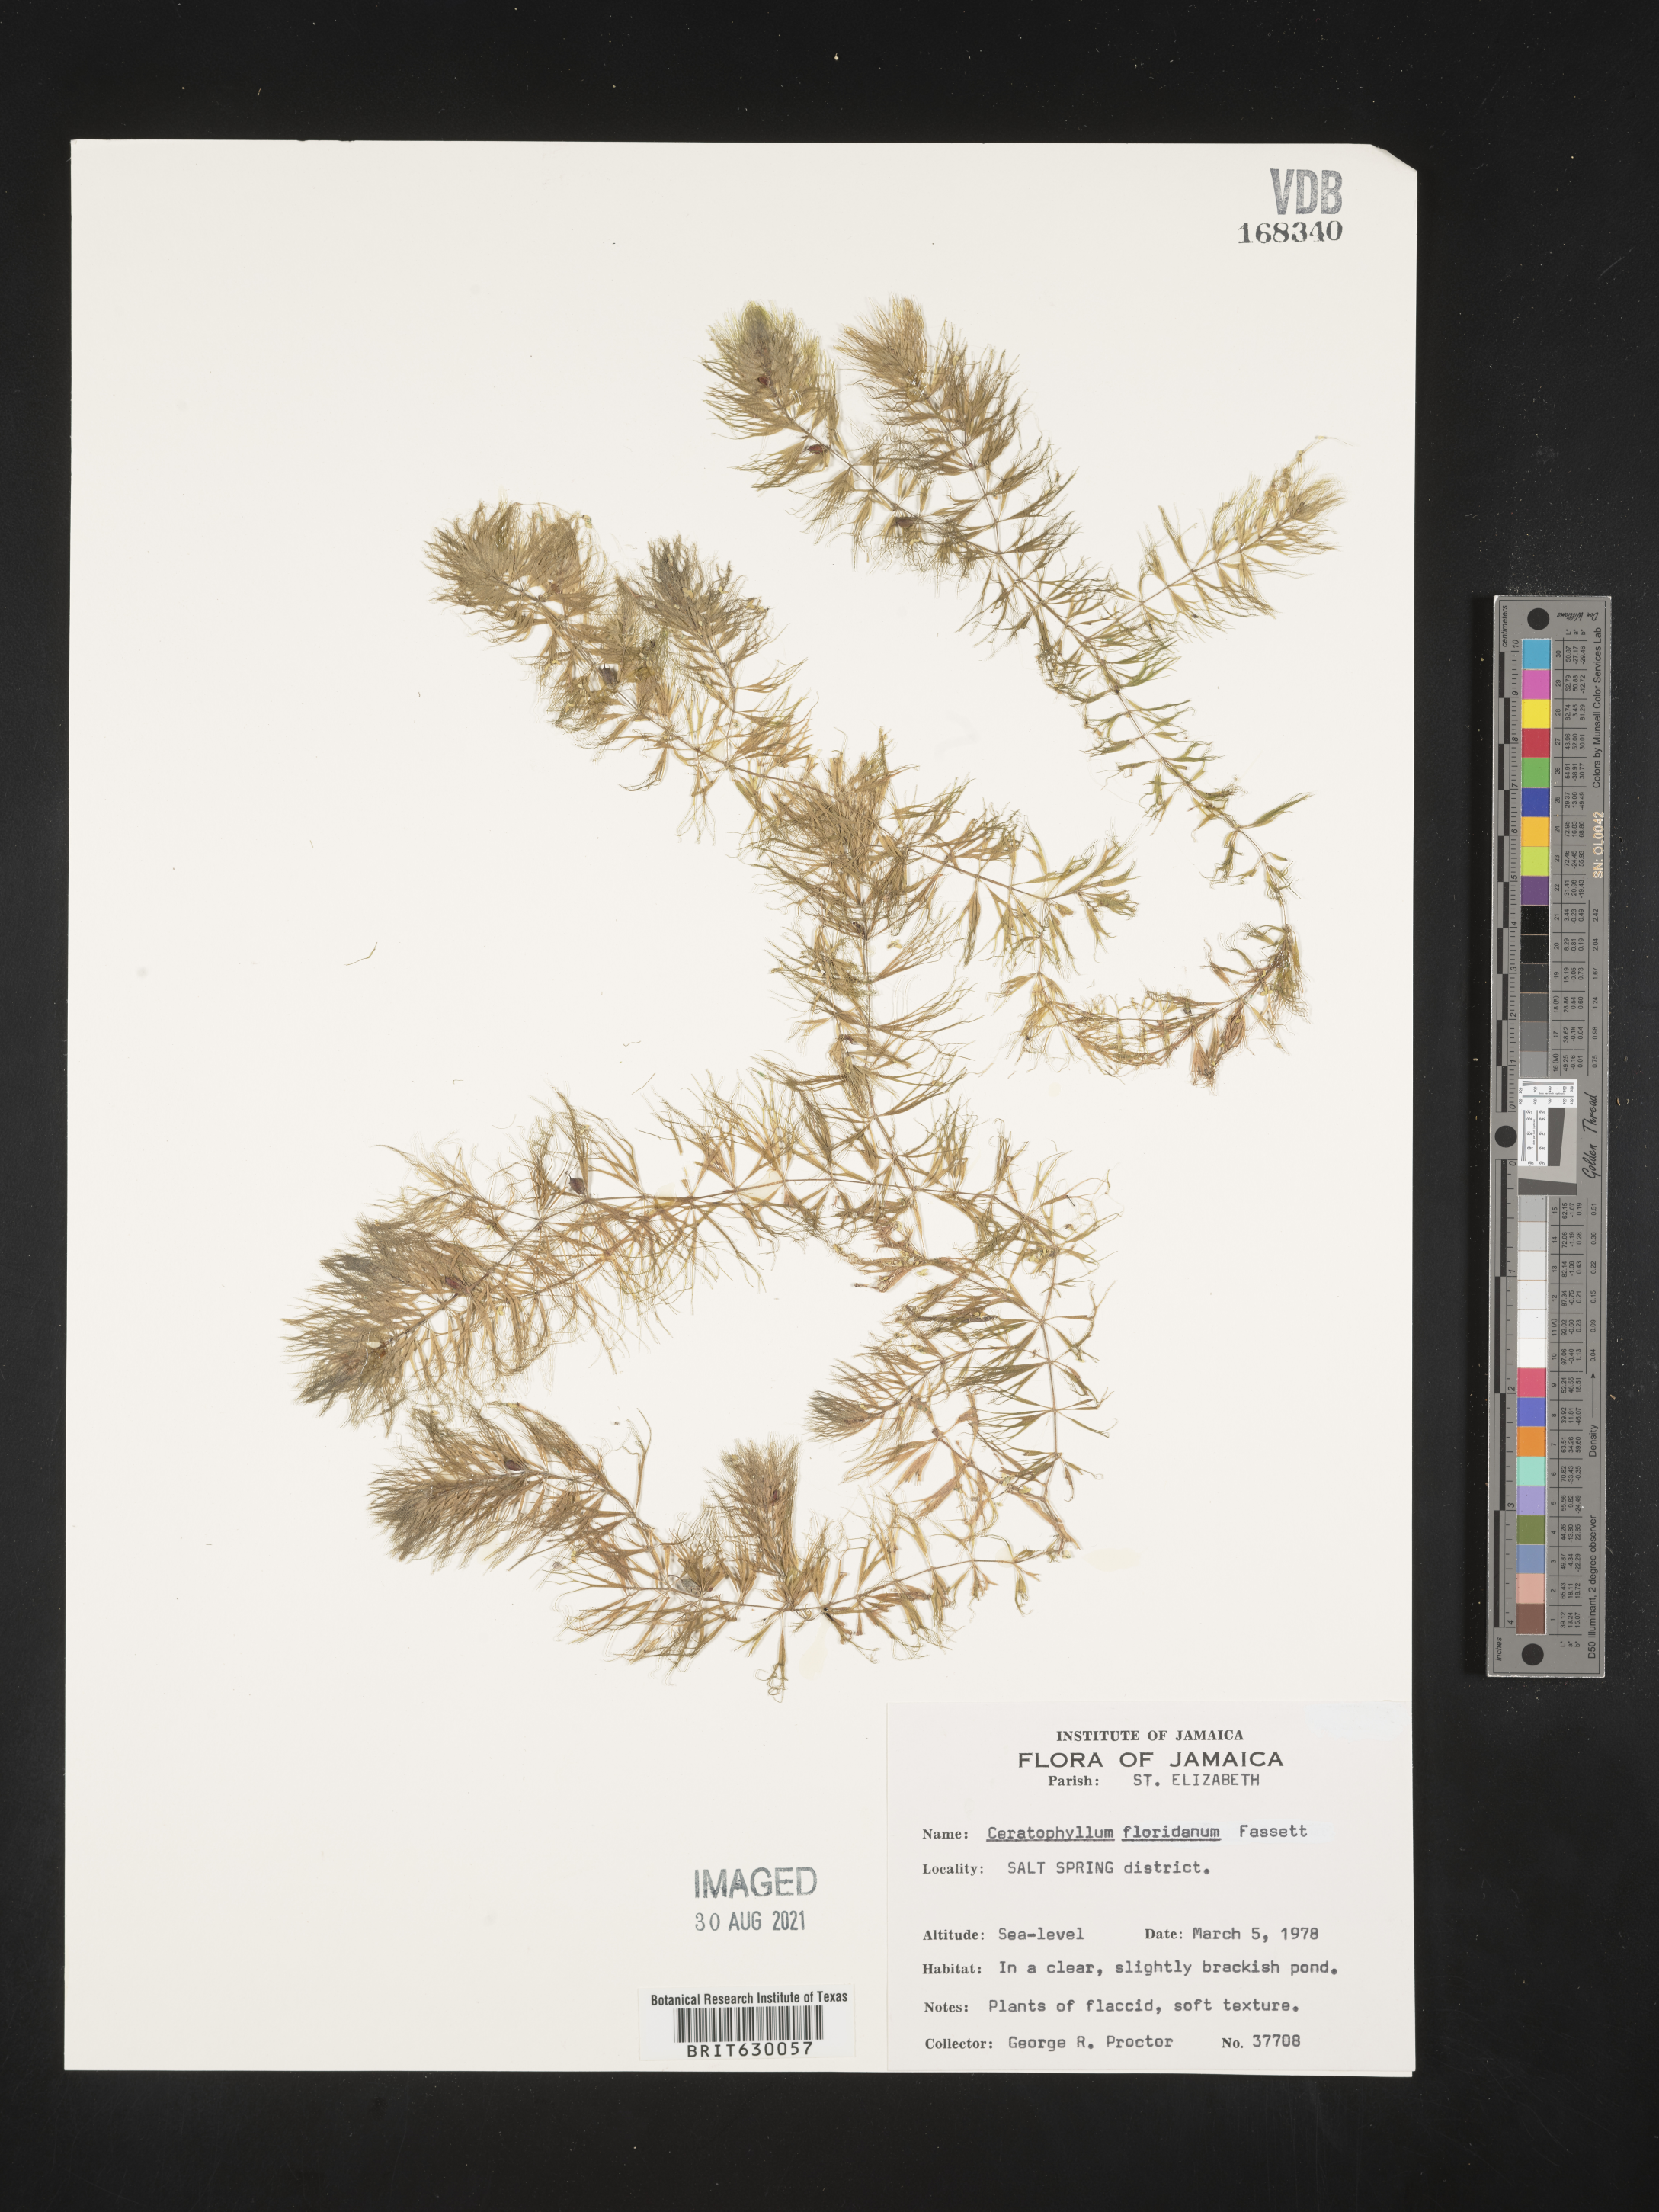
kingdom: Plantae
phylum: Tracheophyta
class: Magnoliopsida
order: Ceratophyllales
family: Ceratophyllaceae
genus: Ceratophyllum
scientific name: Ceratophyllum muricatum
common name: Prickly hornwort
